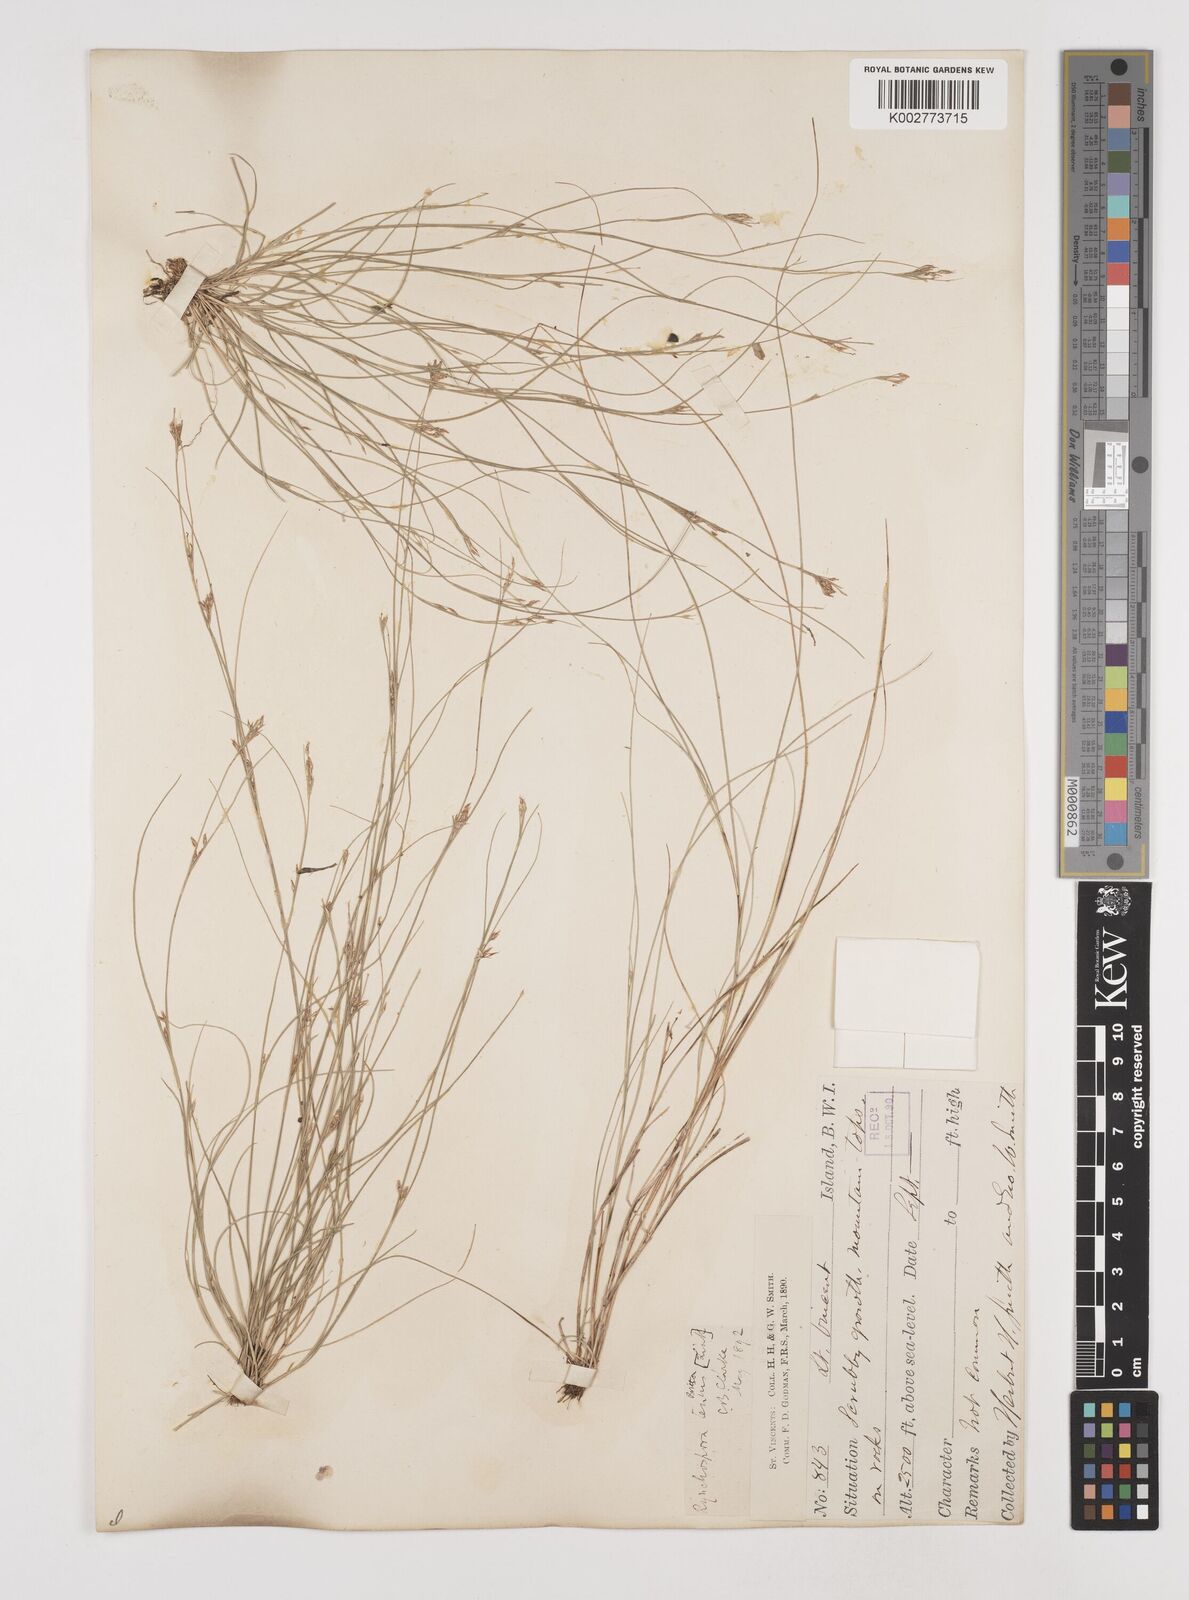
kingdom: Plantae
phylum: Tracheophyta
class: Liliopsida
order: Poales
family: Cyperaceae
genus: Rhynchospora
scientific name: Rhynchospora tenuis
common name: Quill beaksedge
